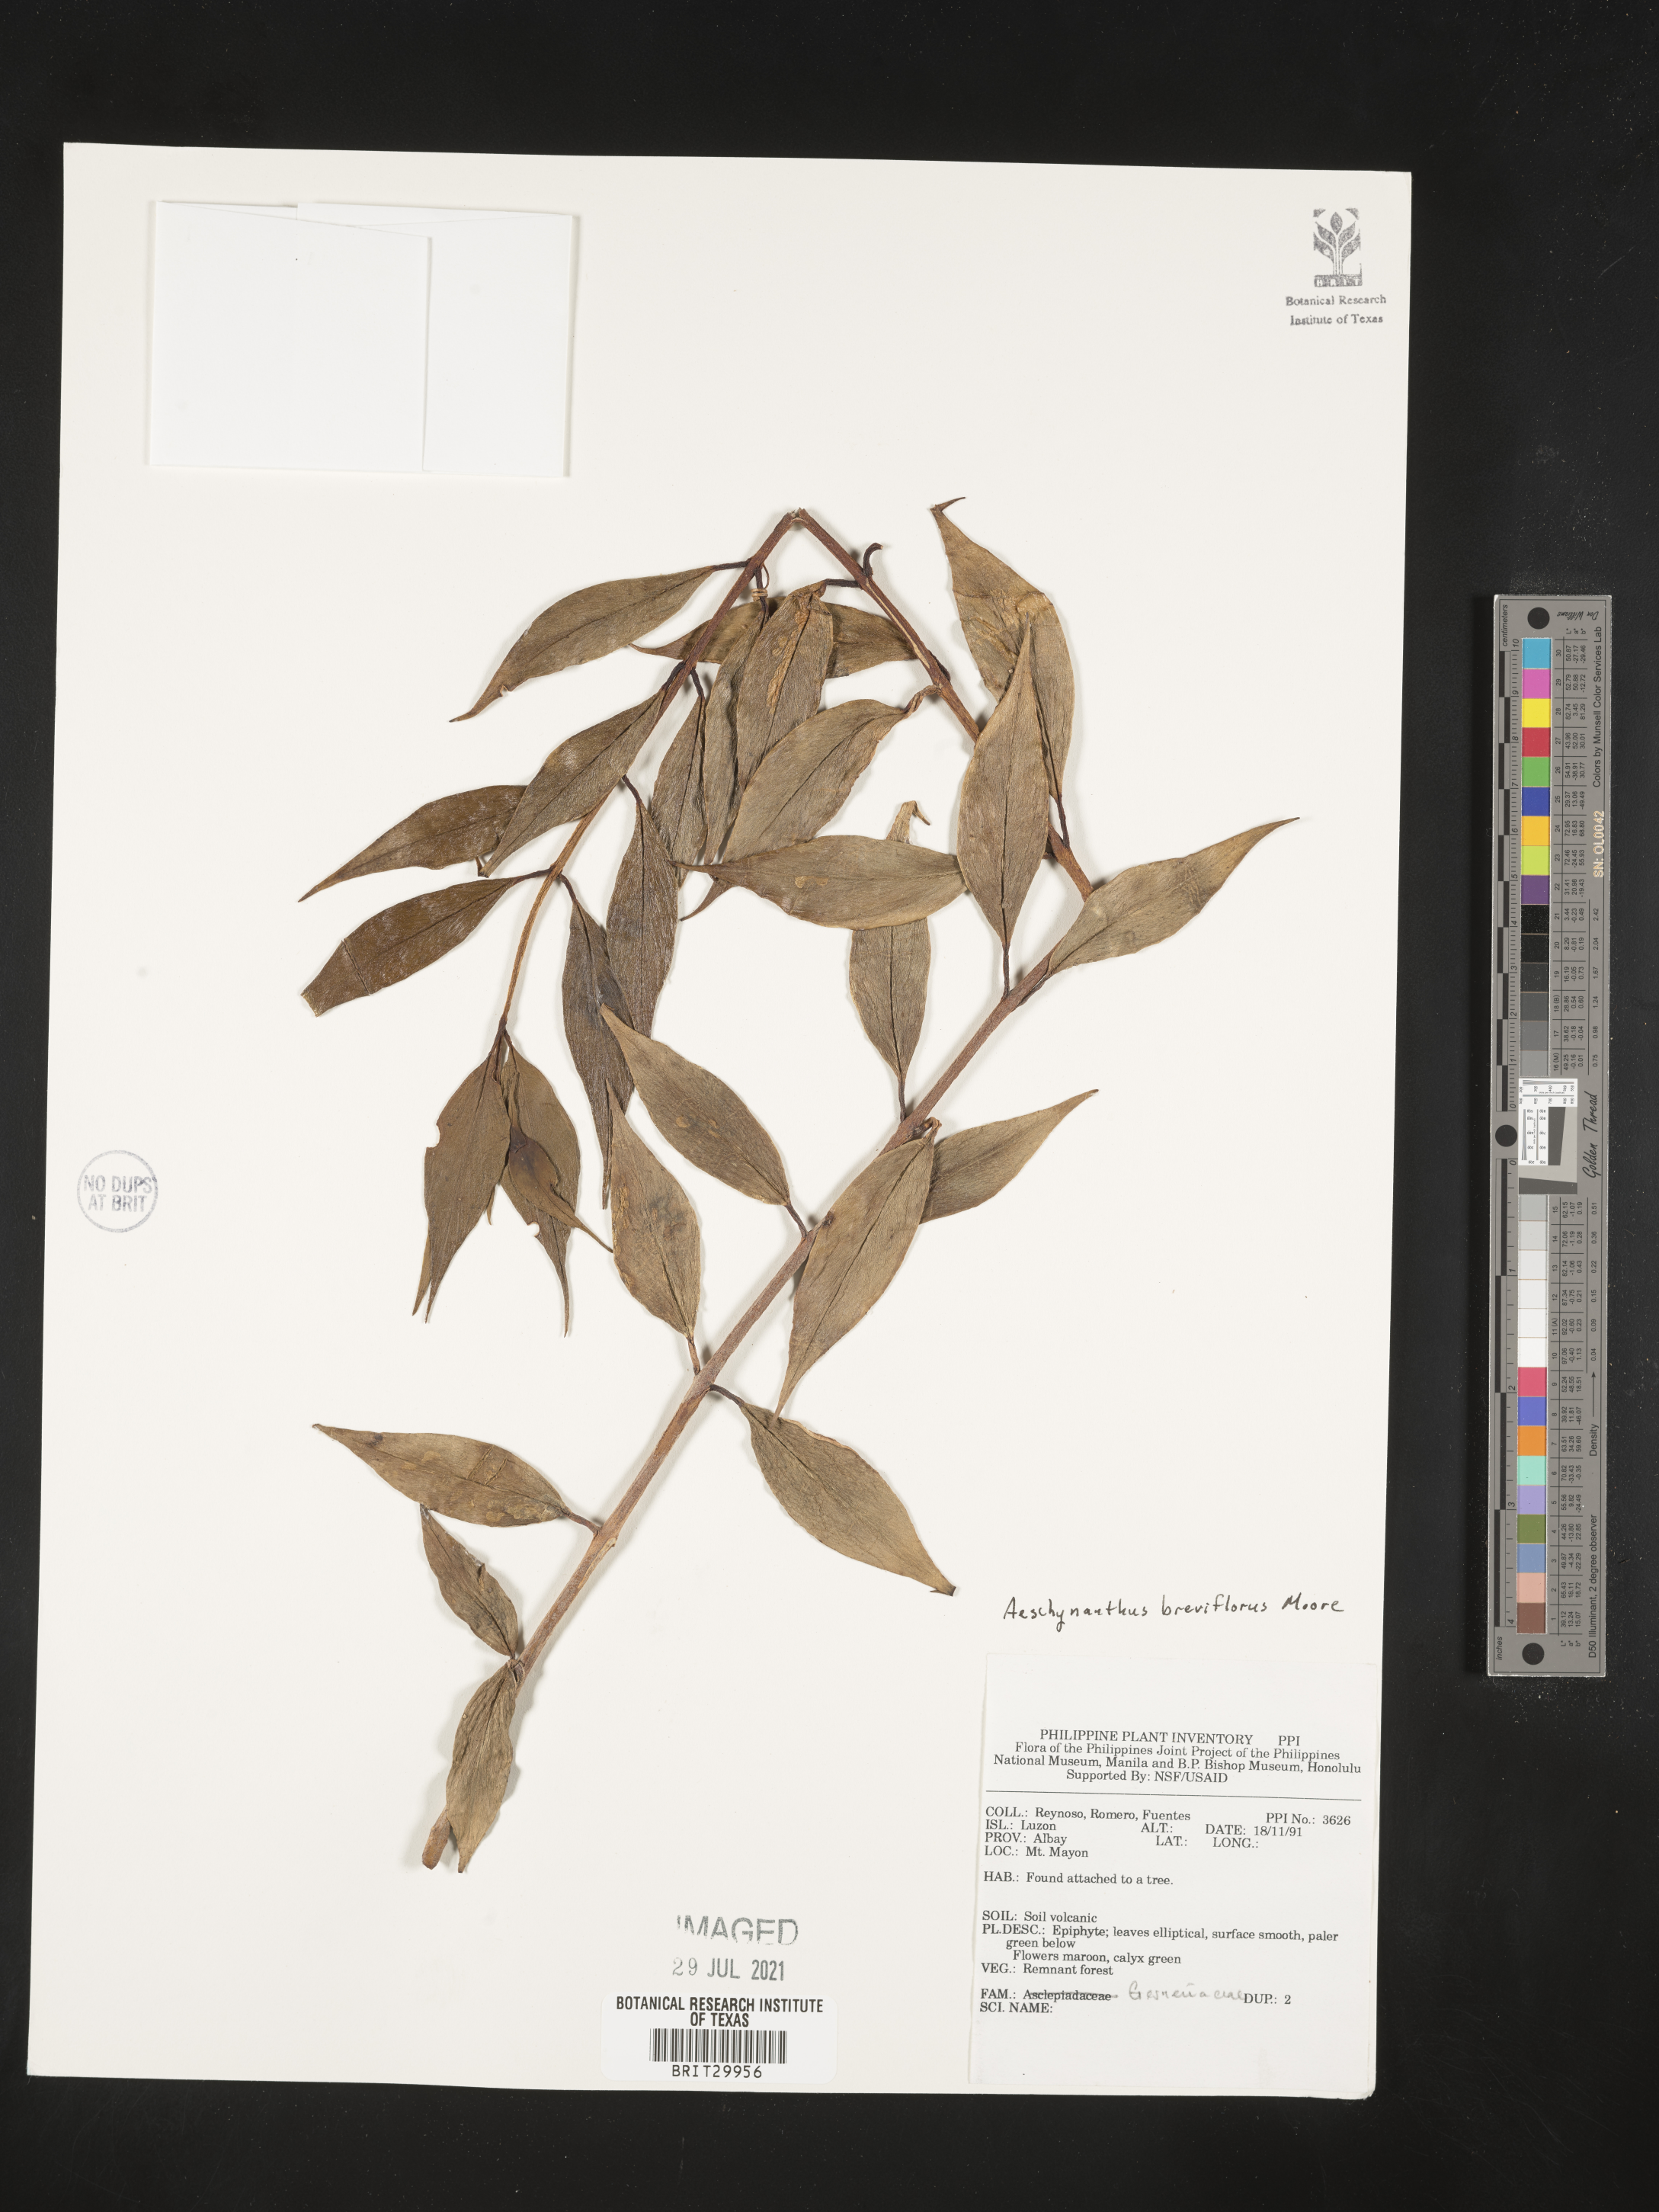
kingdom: Plantae
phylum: Tracheophyta
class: Magnoliopsida
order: Lamiales
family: Gesneriaceae
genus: Aeschynanthus
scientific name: Aeschynanthus breviflorus
